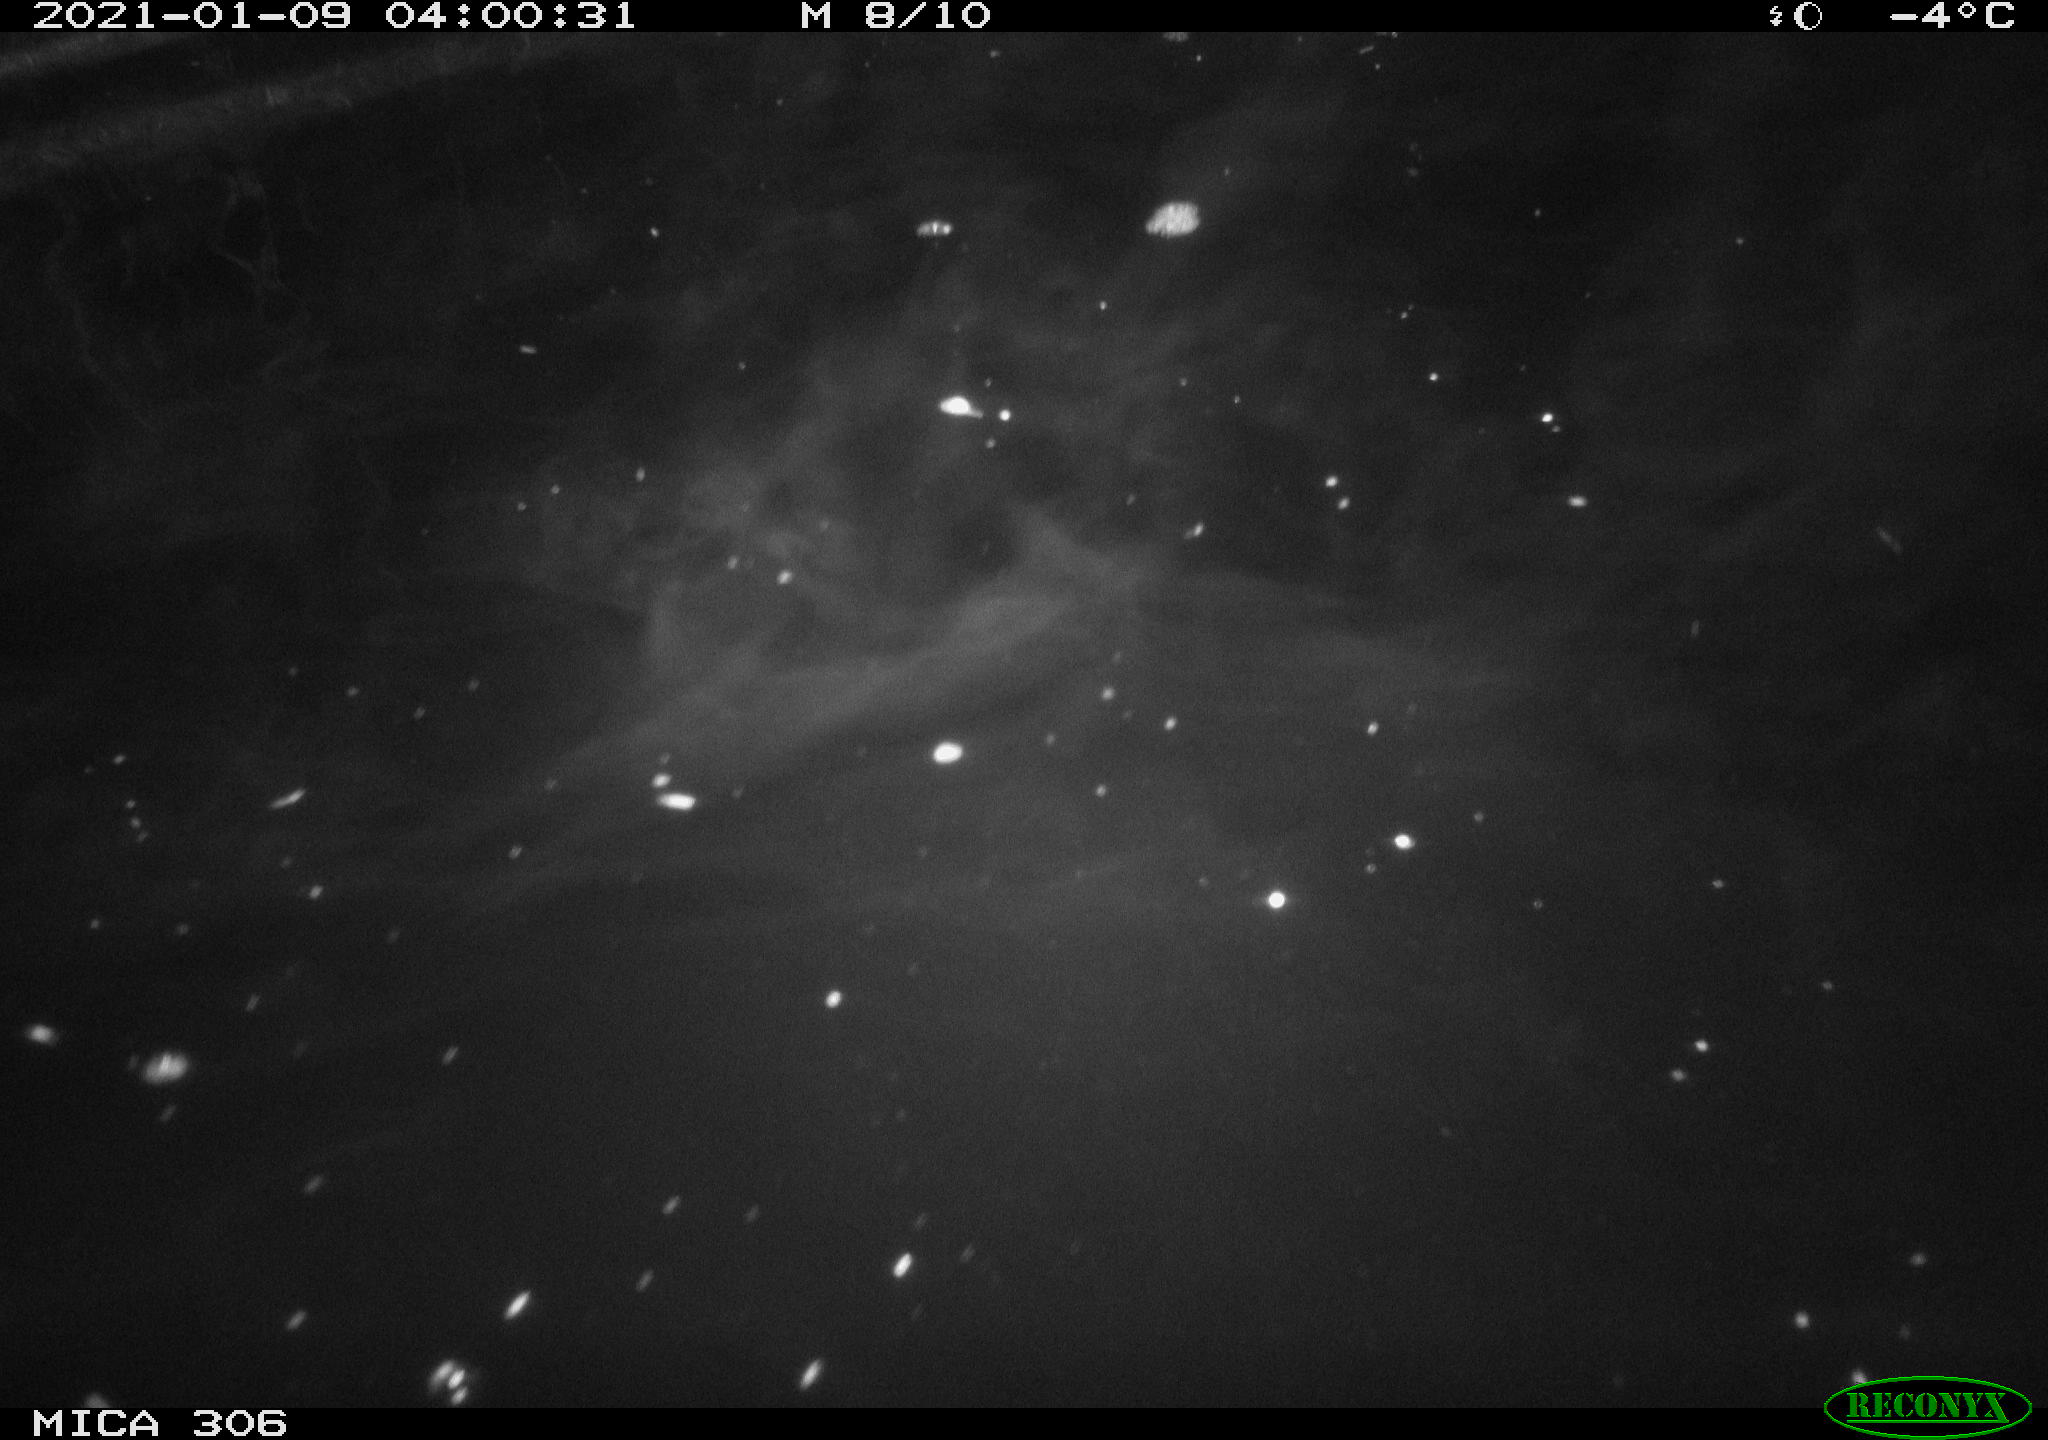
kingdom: Animalia
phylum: Chordata
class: Mammalia
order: Rodentia
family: Cricetidae
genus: Ondatra
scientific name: Ondatra zibethicus
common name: Muskrat
